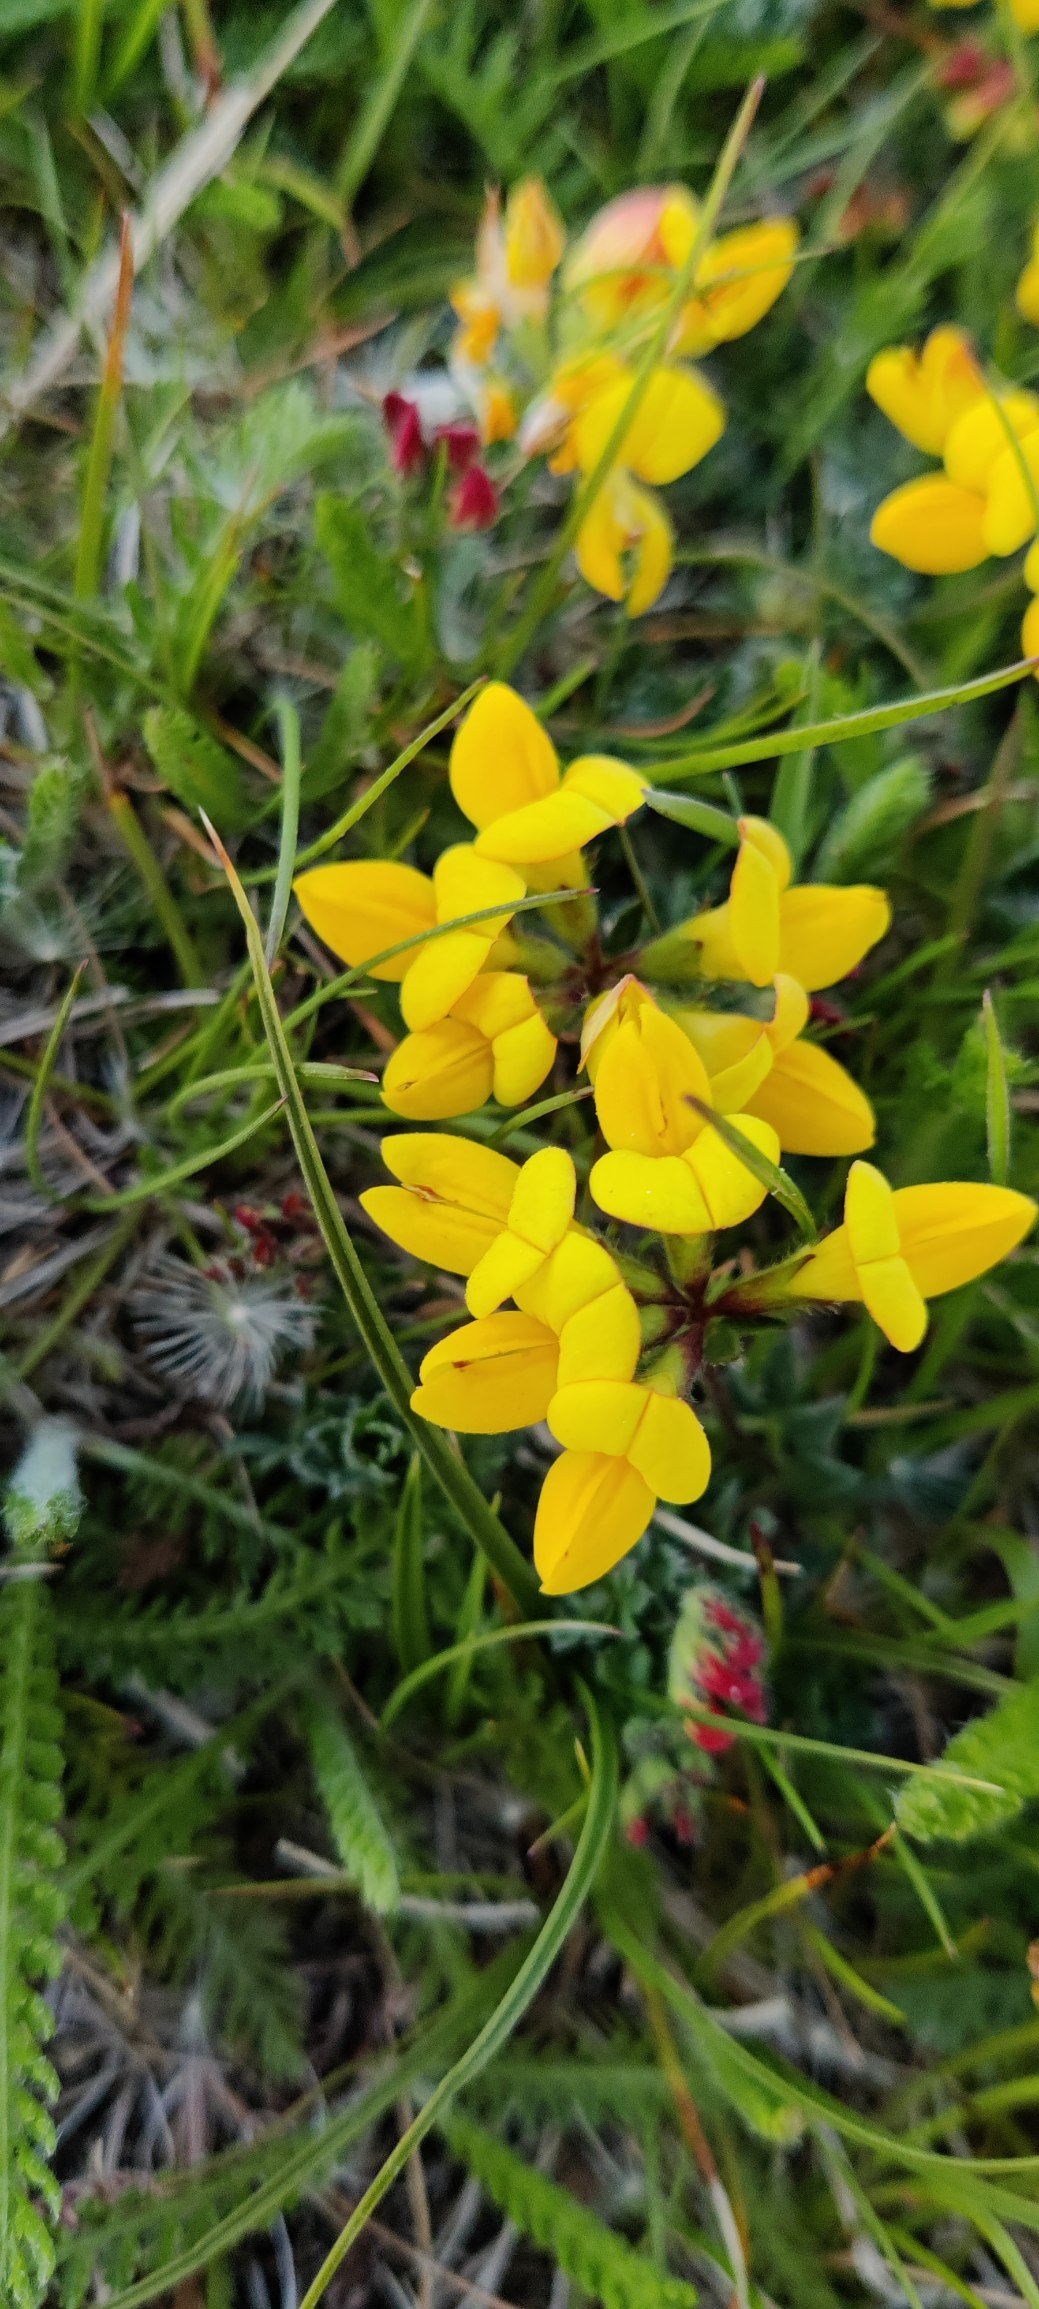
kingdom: Plantae
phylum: Tracheophyta
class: Magnoliopsida
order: Fabales
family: Fabaceae
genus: Lotus
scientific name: Lotus corniculatus
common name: Almindelig kællingetand
